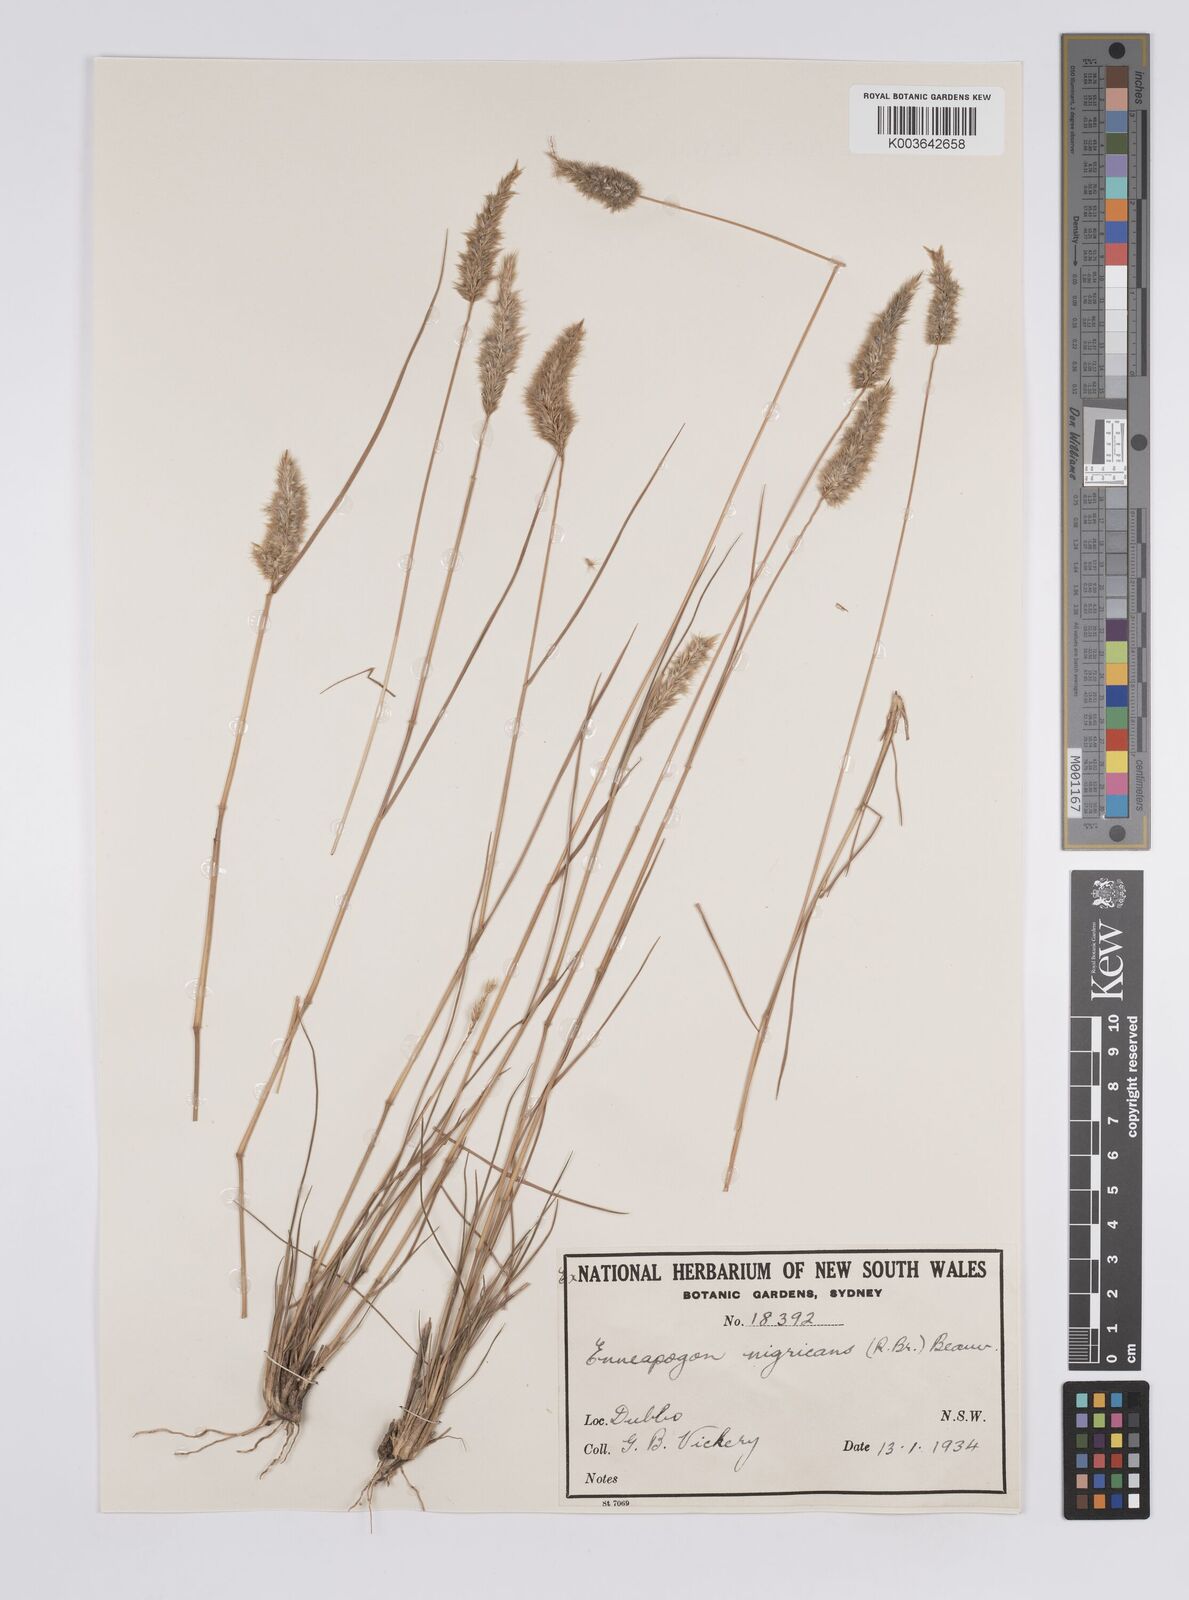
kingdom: Plantae
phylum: Tracheophyta
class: Liliopsida
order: Poales
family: Poaceae
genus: Enneapogon
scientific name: Enneapogon nigricans
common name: Pappus grass
